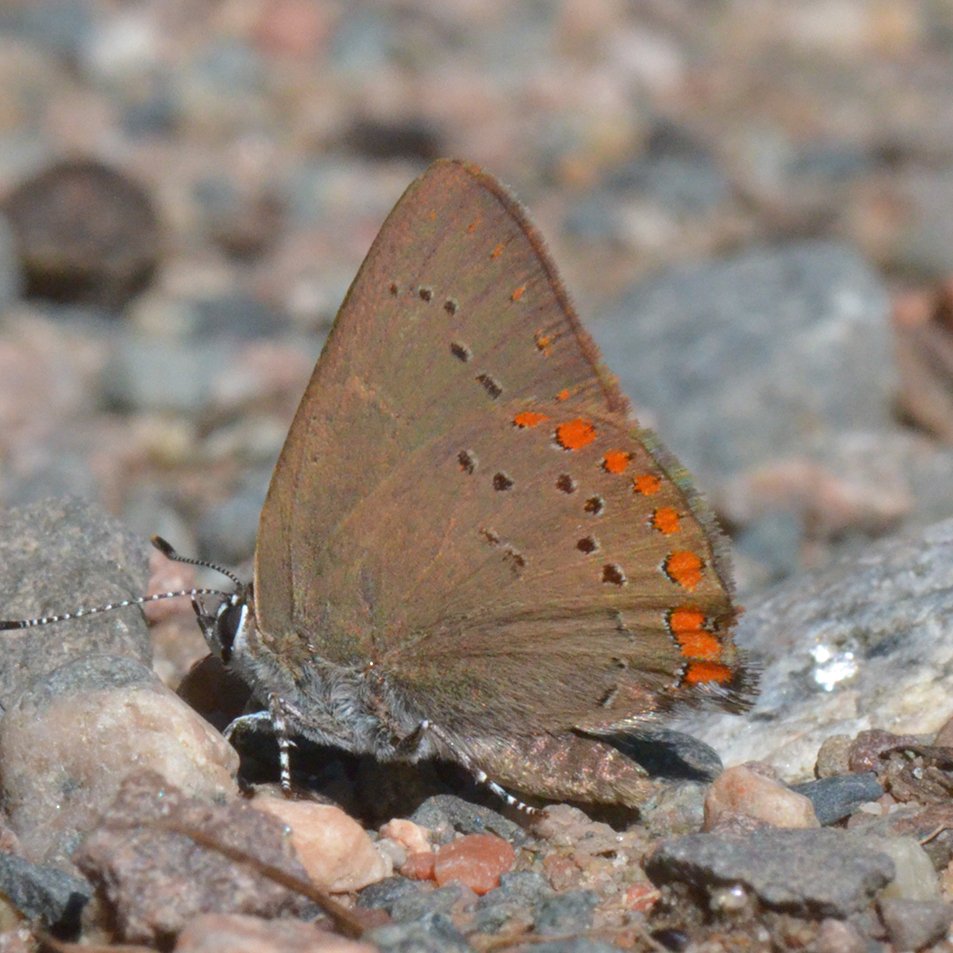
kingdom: Animalia
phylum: Arthropoda
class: Insecta
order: Lepidoptera
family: Lycaenidae
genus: Harkenclenus
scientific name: Harkenclenus titus
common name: Coral Hairstreak
